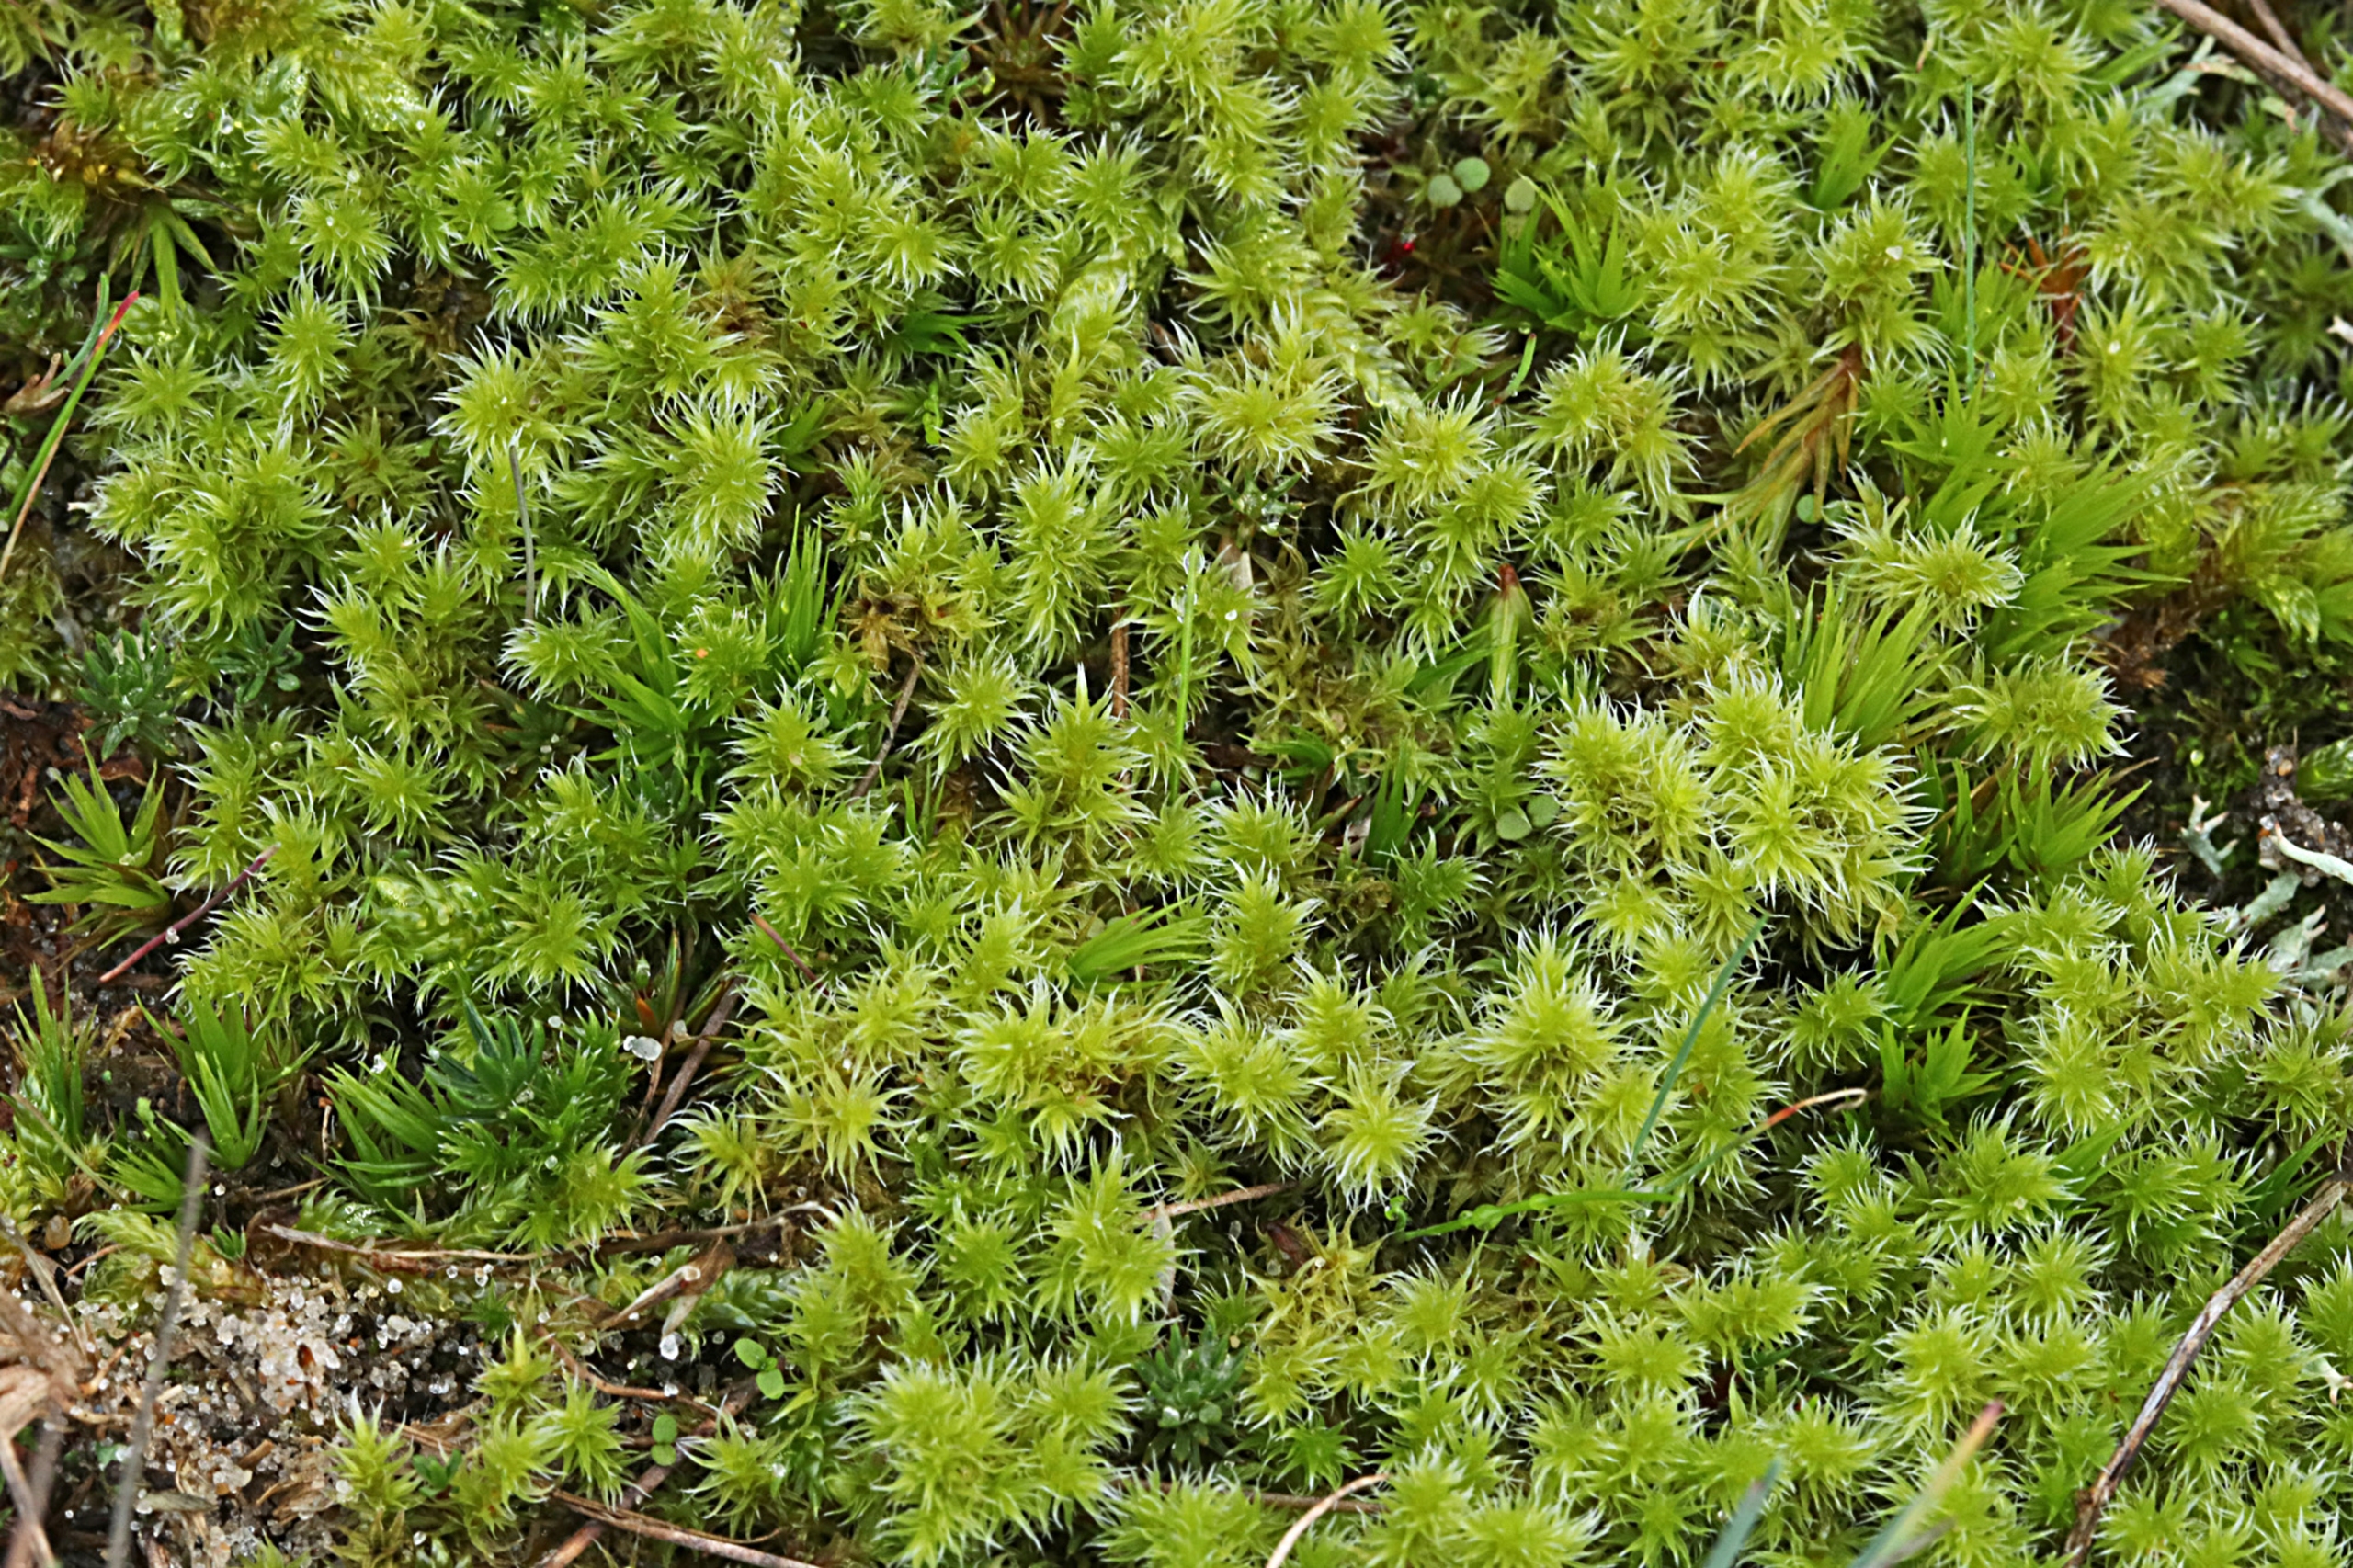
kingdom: Plantae
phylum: Bryophyta
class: Bryopsida
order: Grimmiales
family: Grimmiaceae
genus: Niphotrichum
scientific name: Niphotrichum elongatum
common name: Lang børstemos
